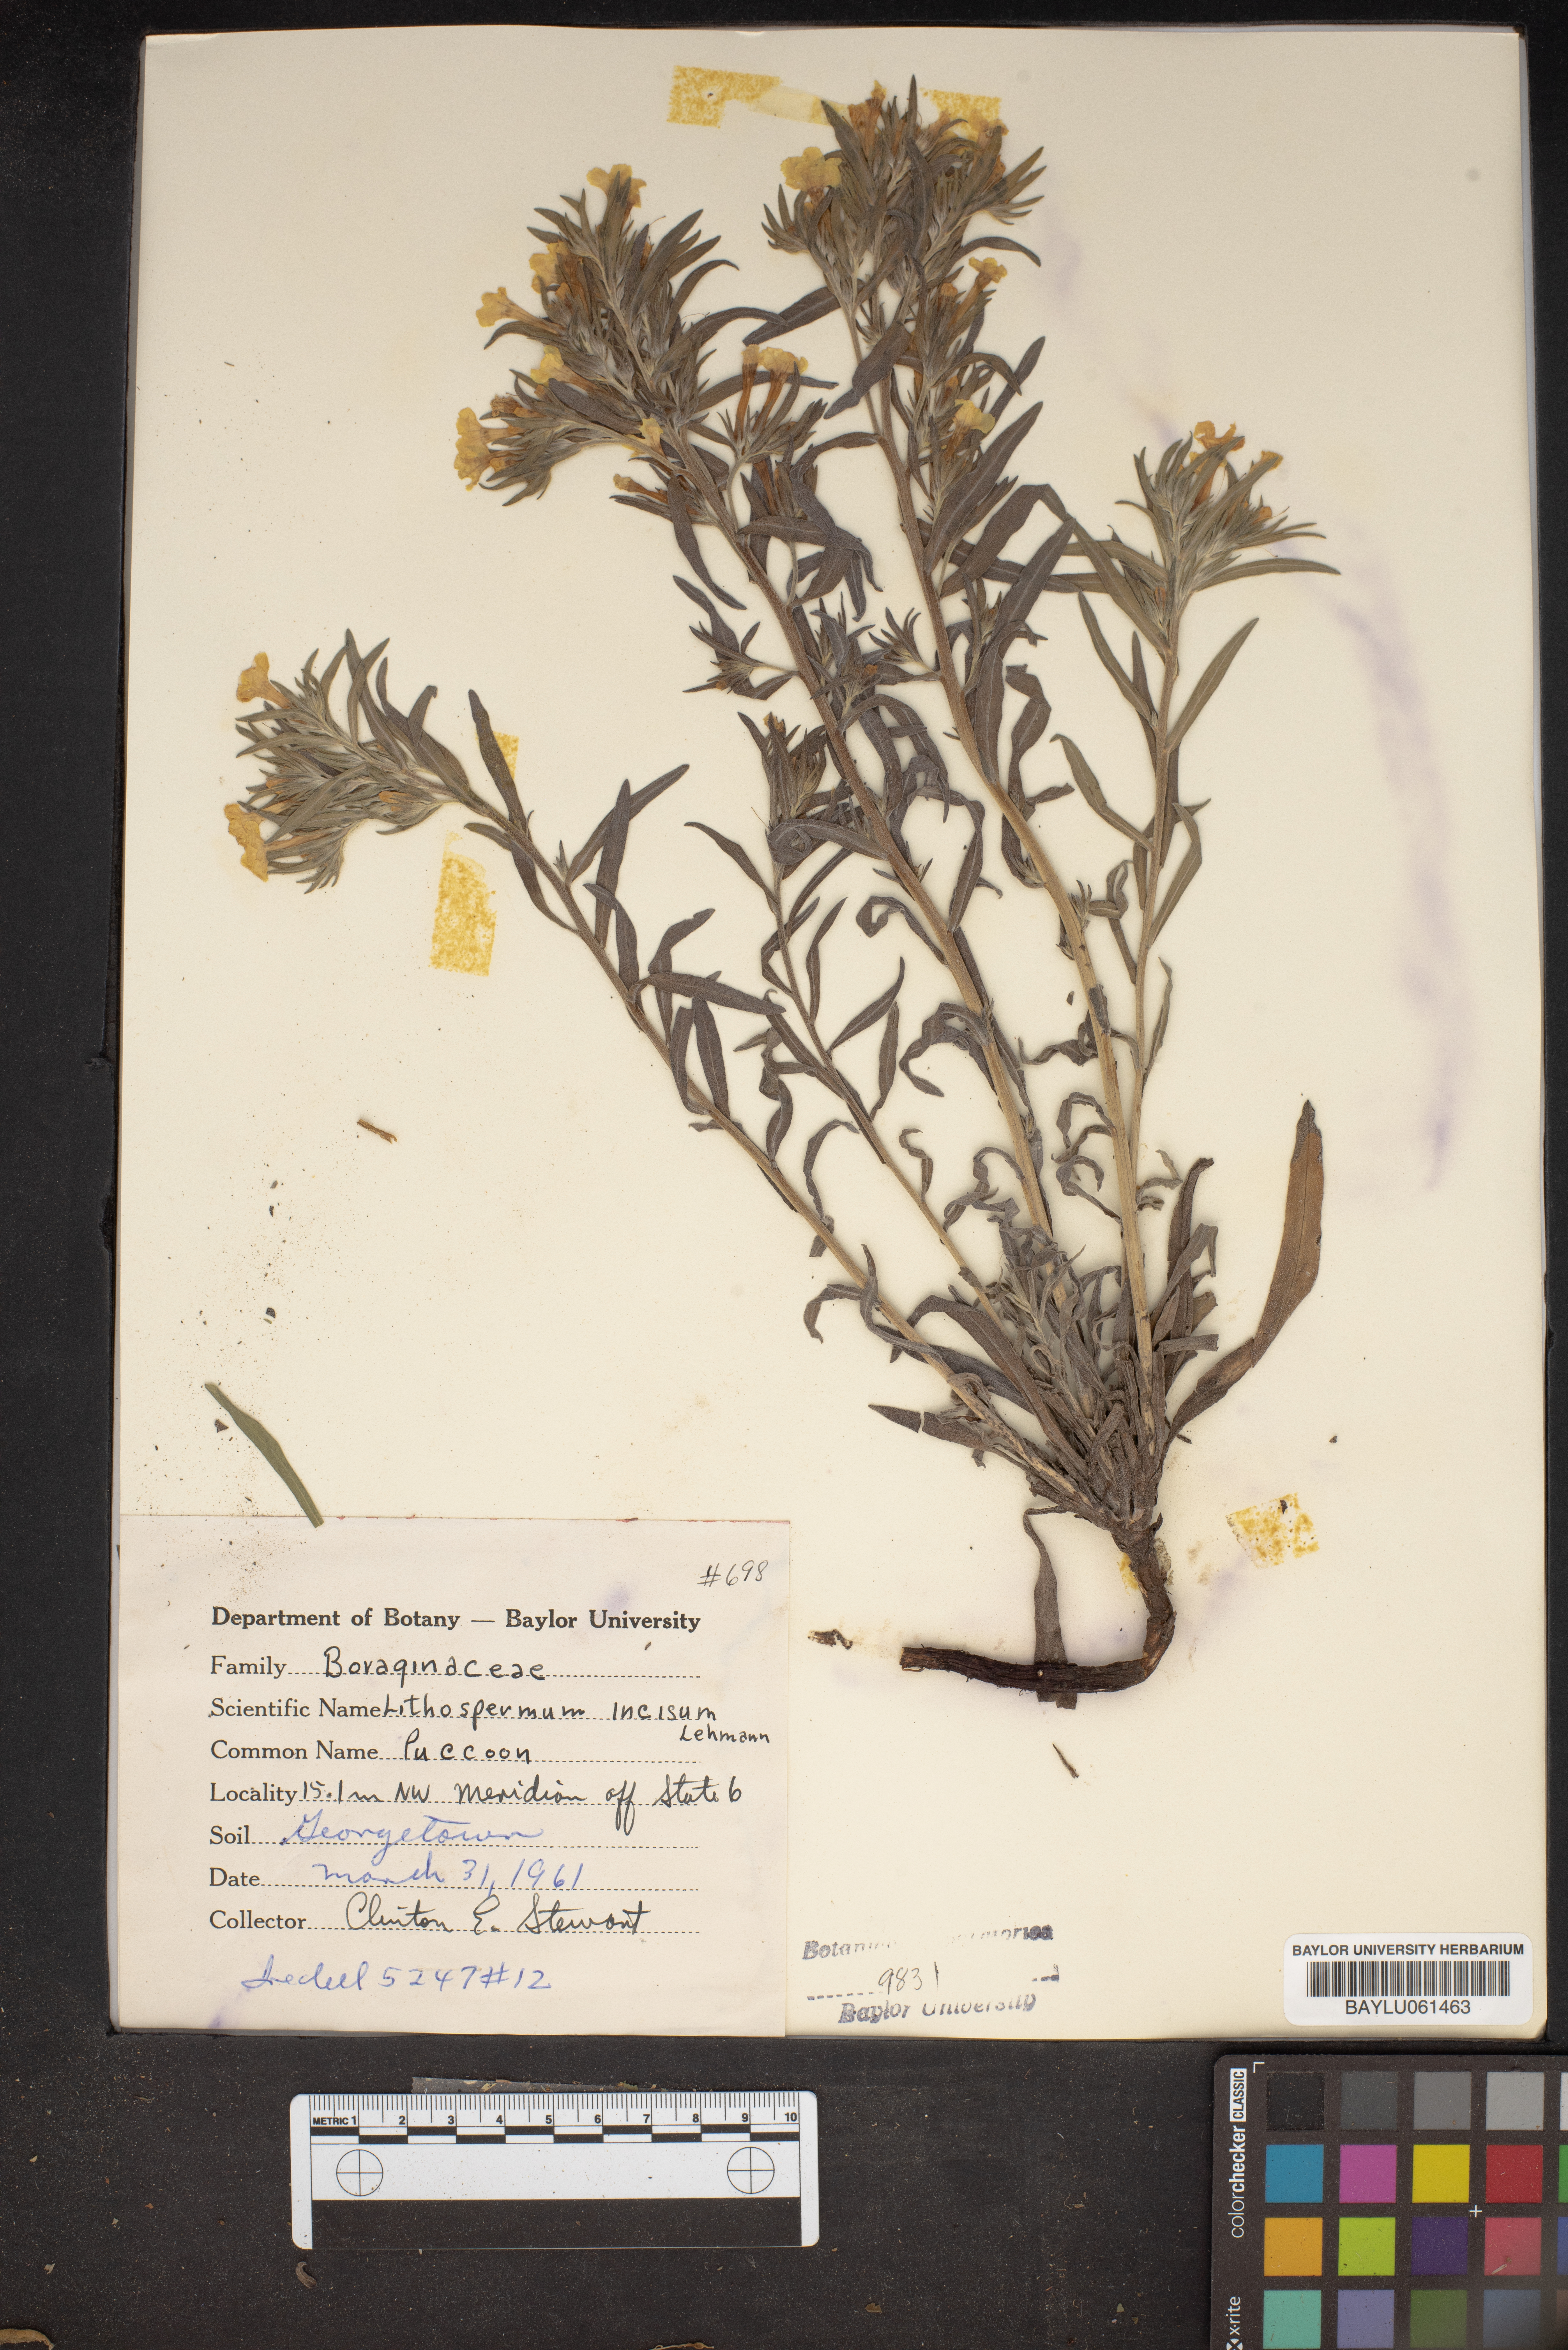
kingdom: Plantae
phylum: Tracheophyta
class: Magnoliopsida
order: Boraginales
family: Boraginaceae
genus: Lithospermum
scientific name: Lithospermum incisum
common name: Fringed gromwell
